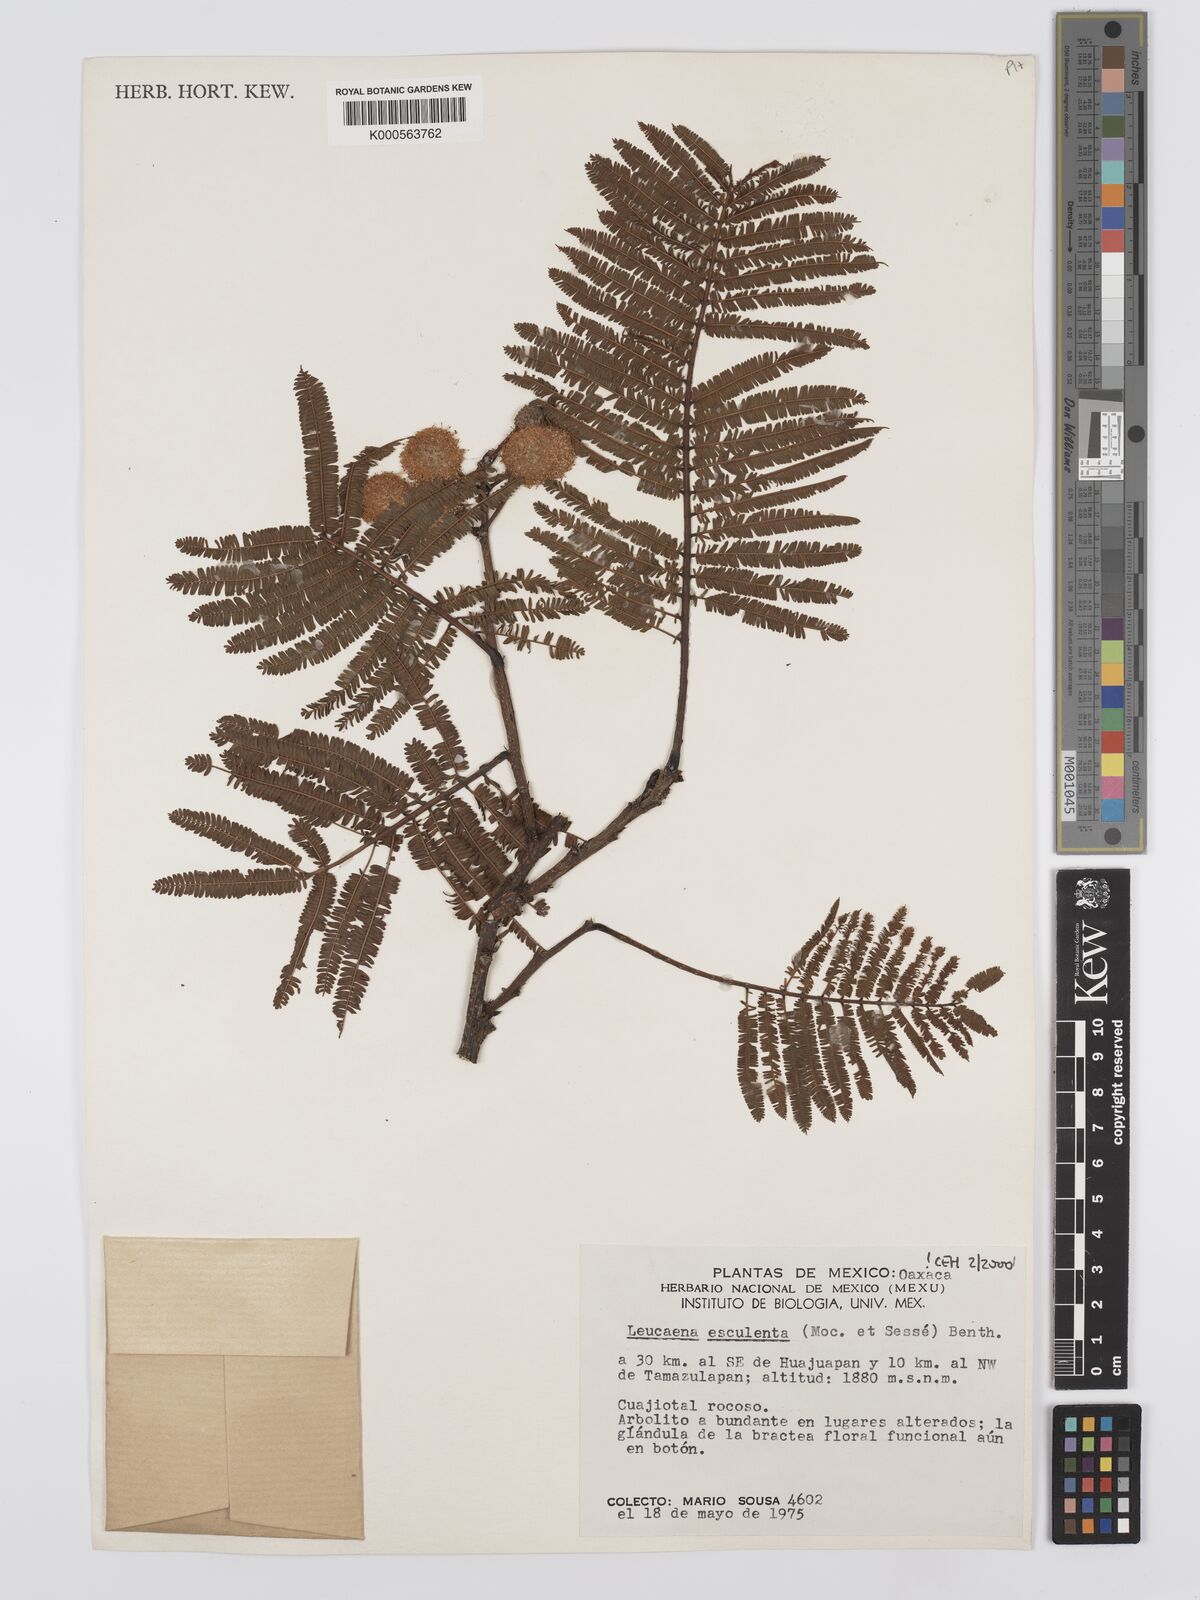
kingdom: Plantae
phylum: Tracheophyta
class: Magnoliopsida
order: Fabales
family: Fabaceae
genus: Leucaena
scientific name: Leucaena
